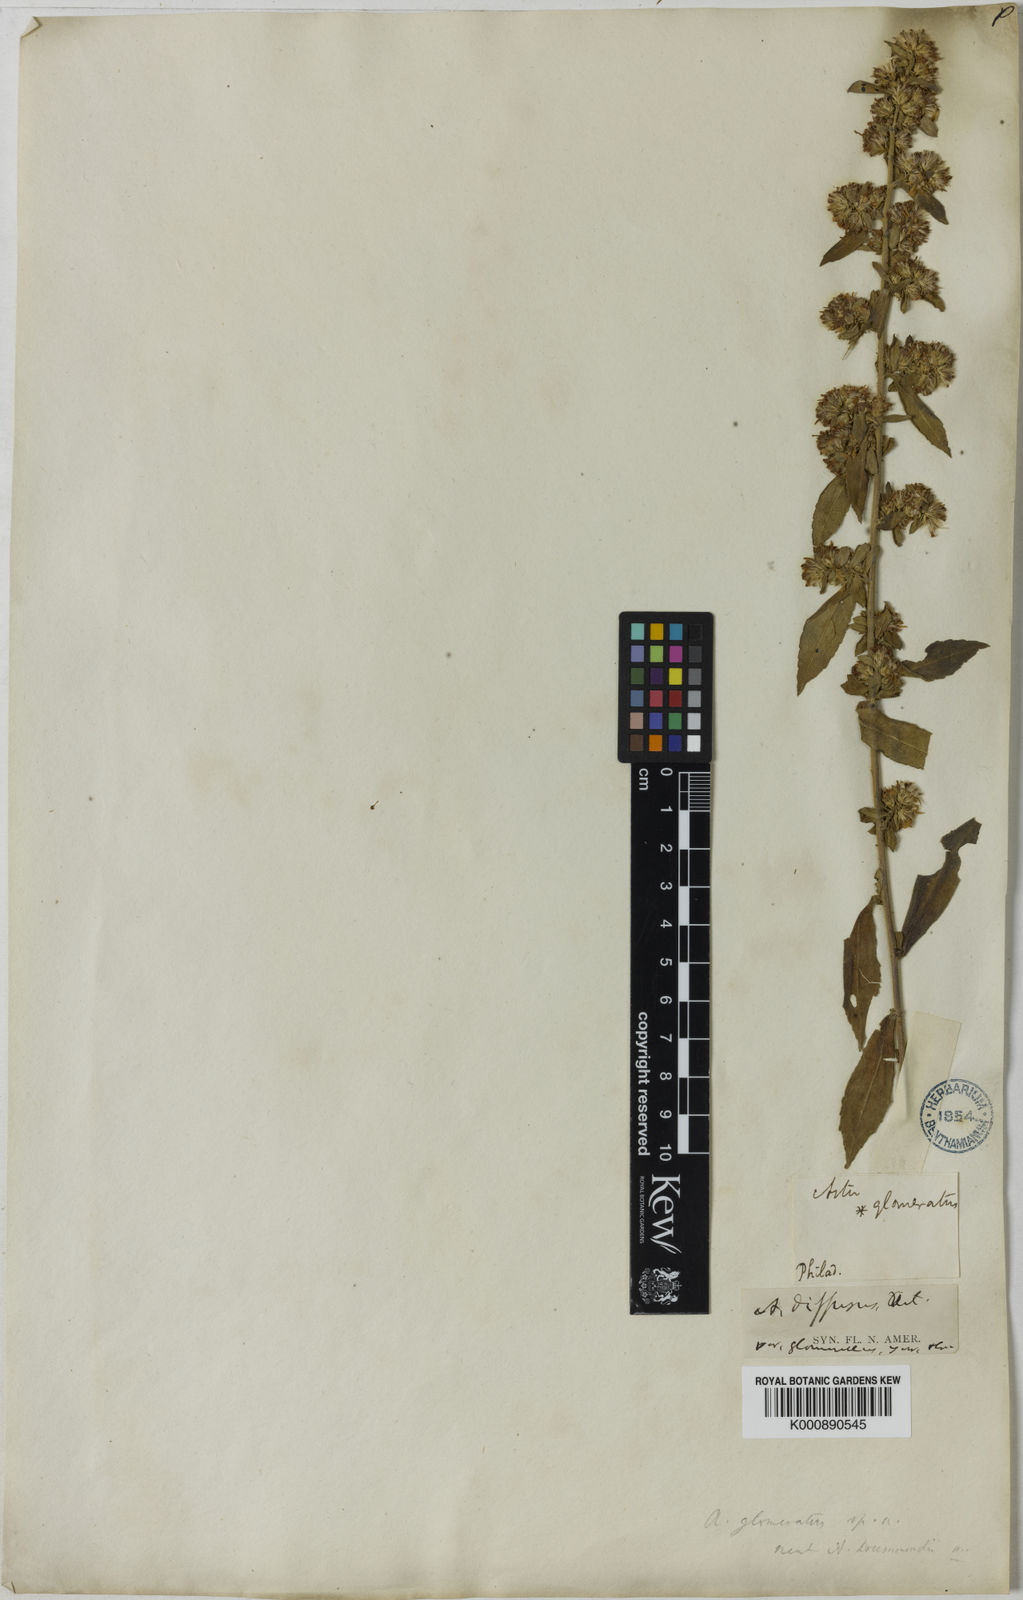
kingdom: Plantae
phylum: Tracheophyta
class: Magnoliopsida
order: Asterales
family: Asteraceae
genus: Symphyotrichum
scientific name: Symphyotrichum lateriflorum
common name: Calico aster
